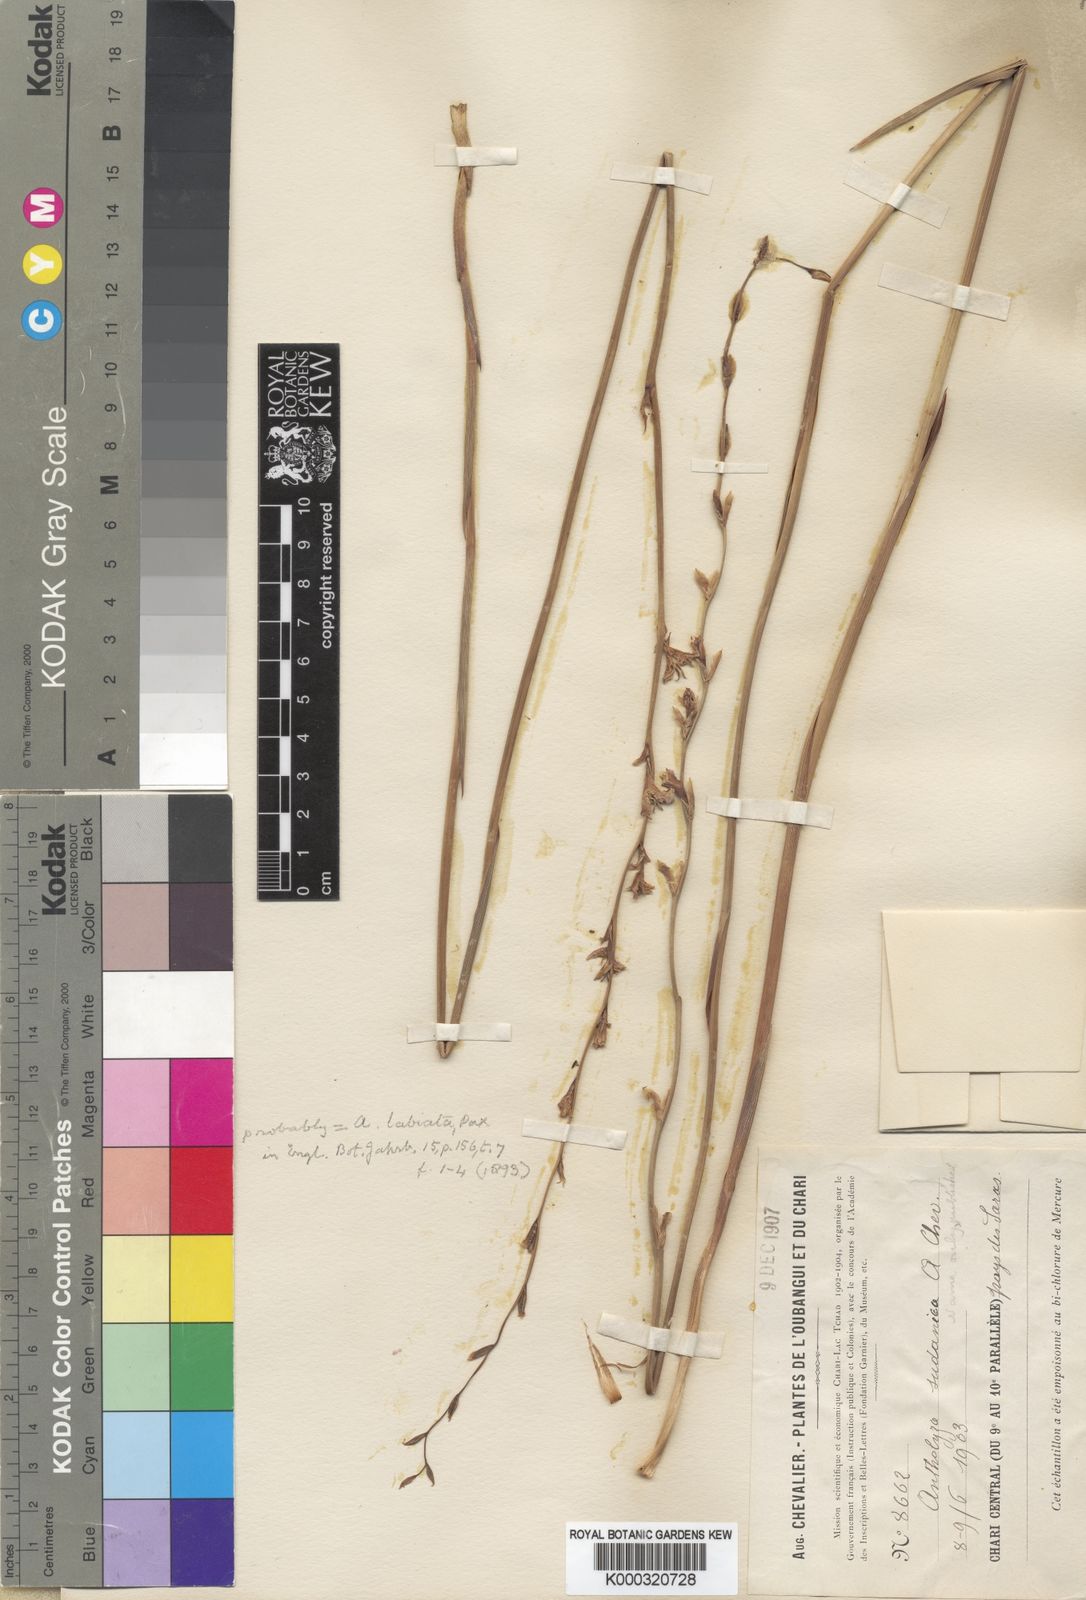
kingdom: Plantae
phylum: Tracheophyta
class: Liliopsida
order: Asparagales
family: Iridaceae
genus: Gladiolus
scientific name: Gladiolus unguiculatus
